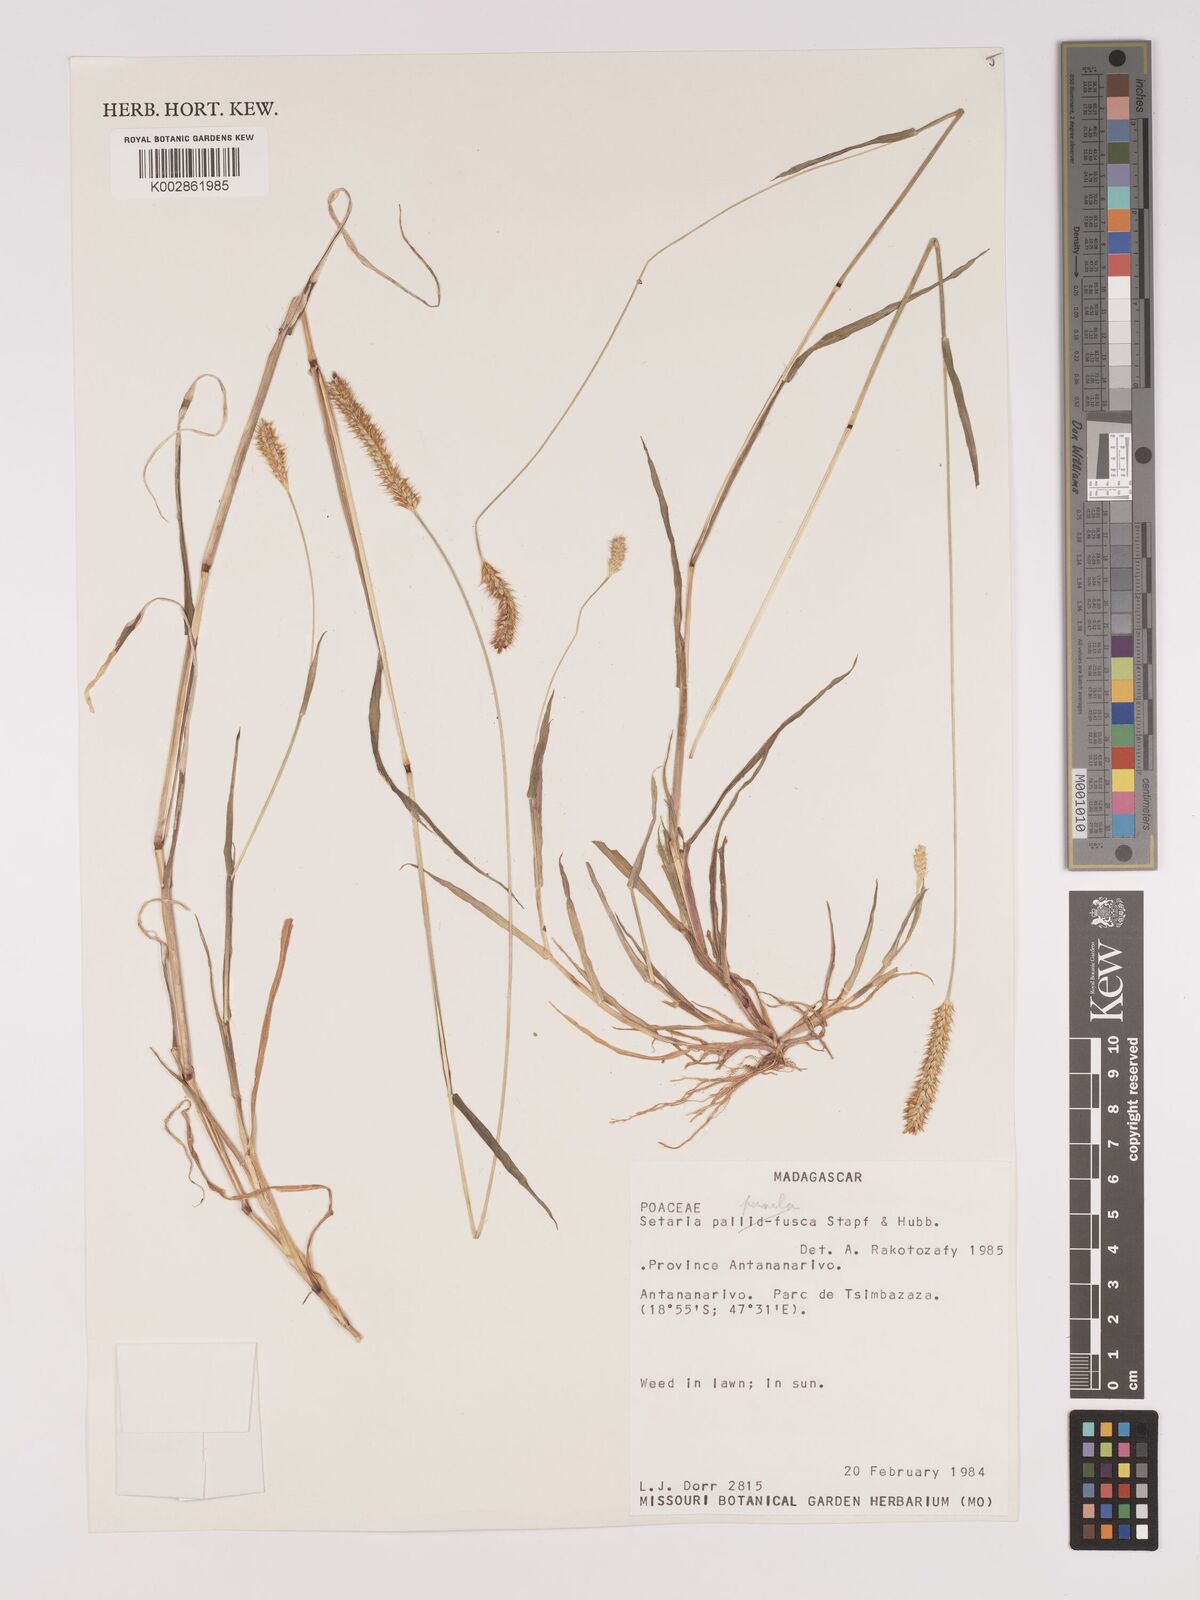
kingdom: Plantae
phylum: Tracheophyta
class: Liliopsida
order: Poales
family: Poaceae
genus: Setaria
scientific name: Setaria pumila
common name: Yellow bristle-grass
